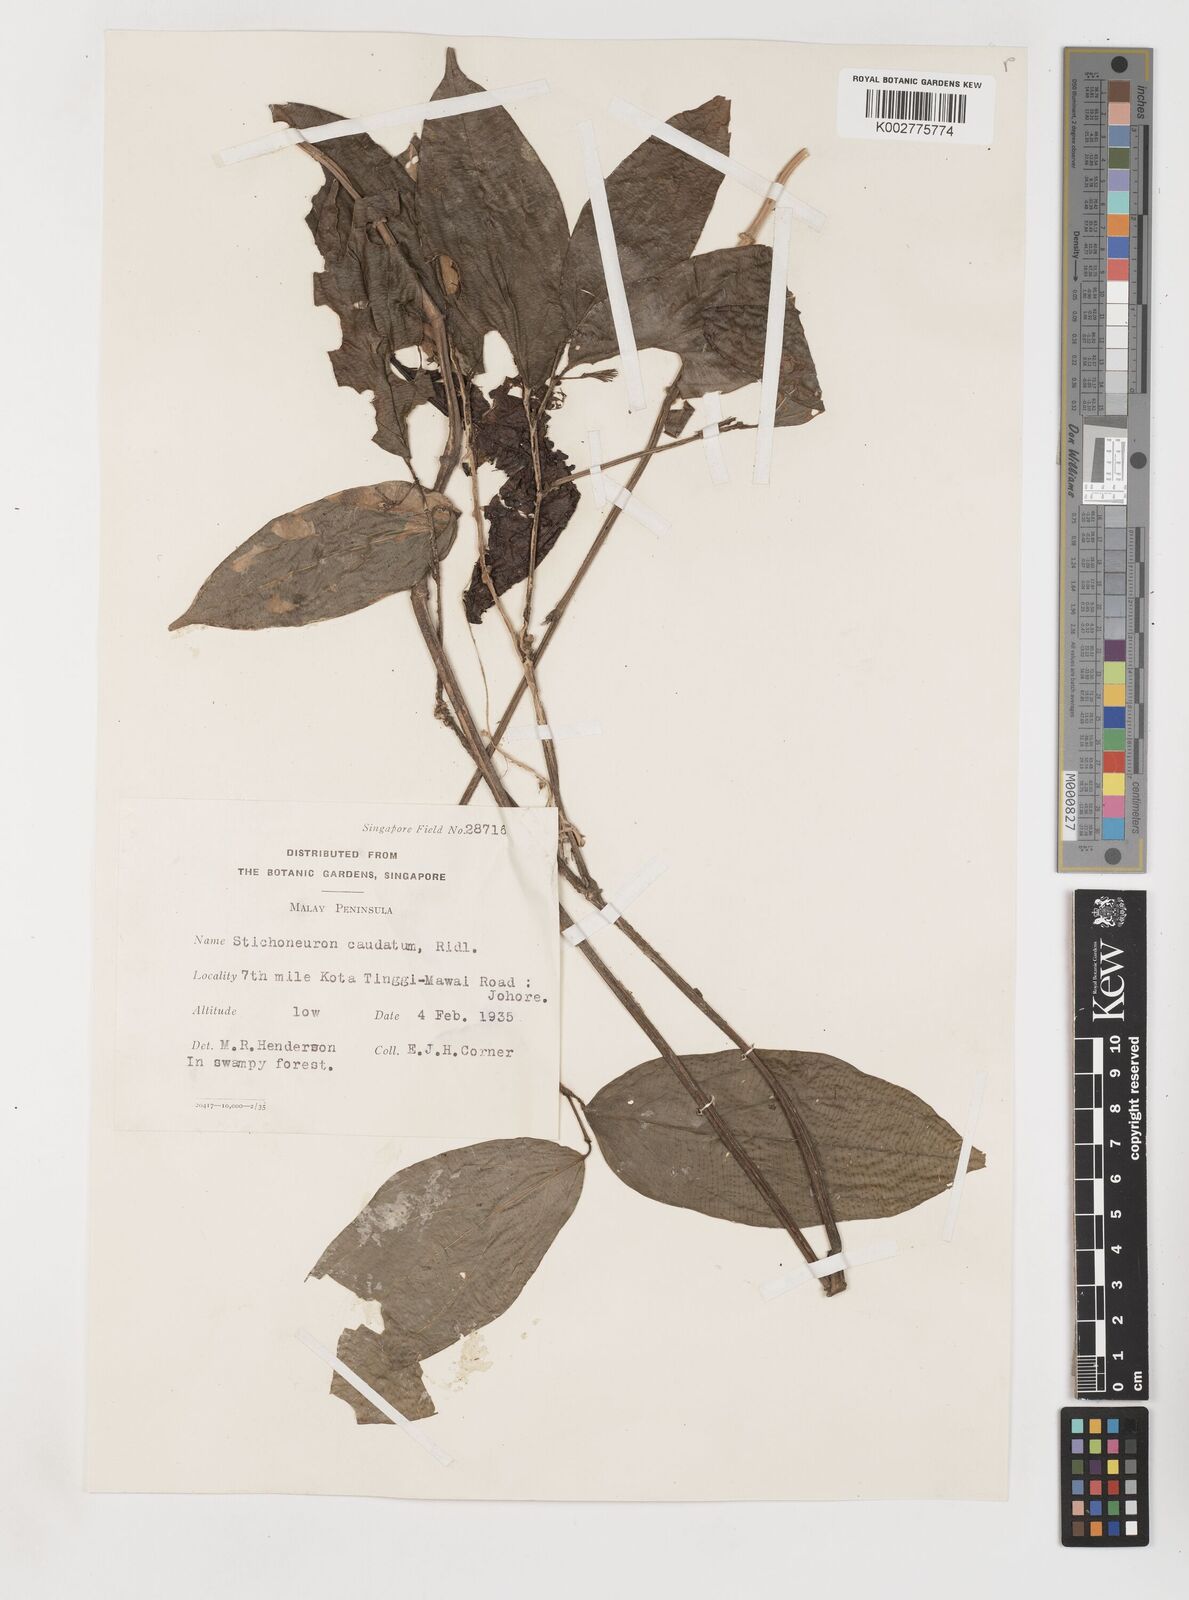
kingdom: Plantae
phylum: Tracheophyta
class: Liliopsida
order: Pandanales
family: Stemonaceae
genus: Stichoneuron
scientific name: Stichoneuron caudatum
